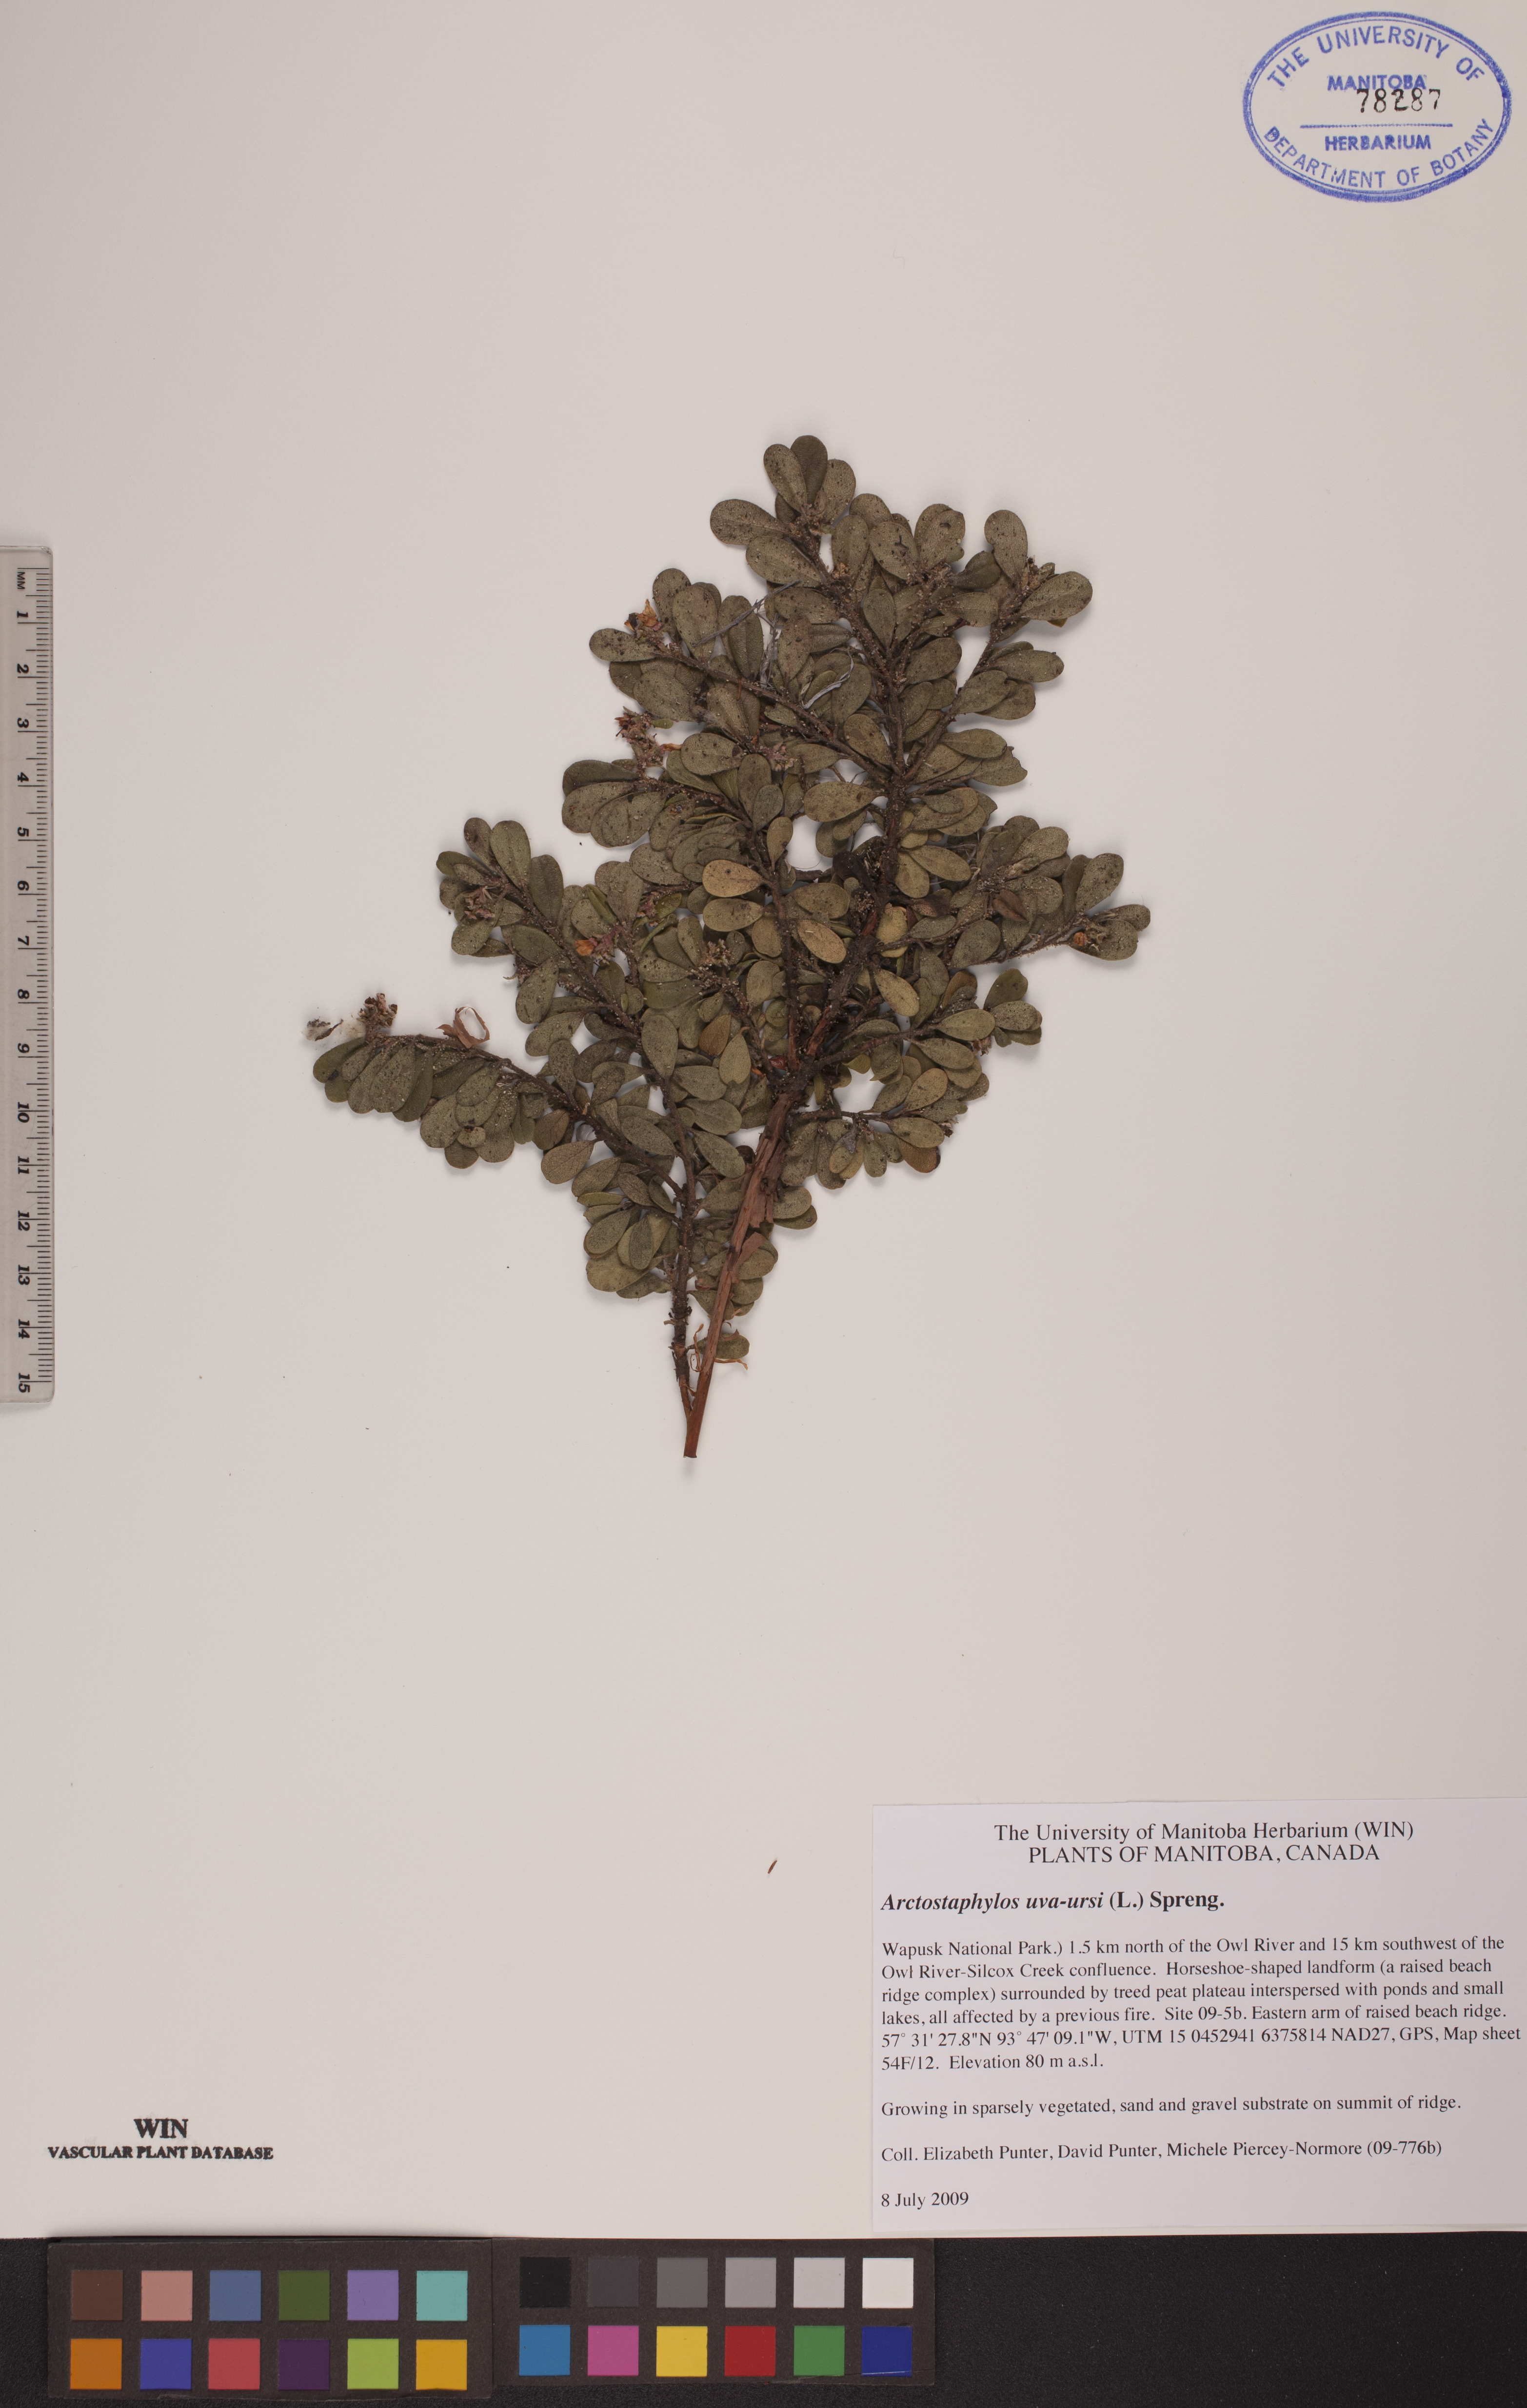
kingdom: Plantae
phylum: Tracheophyta
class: Magnoliopsida
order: Ericales
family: Ericaceae
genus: Arctostaphylos
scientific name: Arctostaphylos uva-ursi
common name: Bearberry
